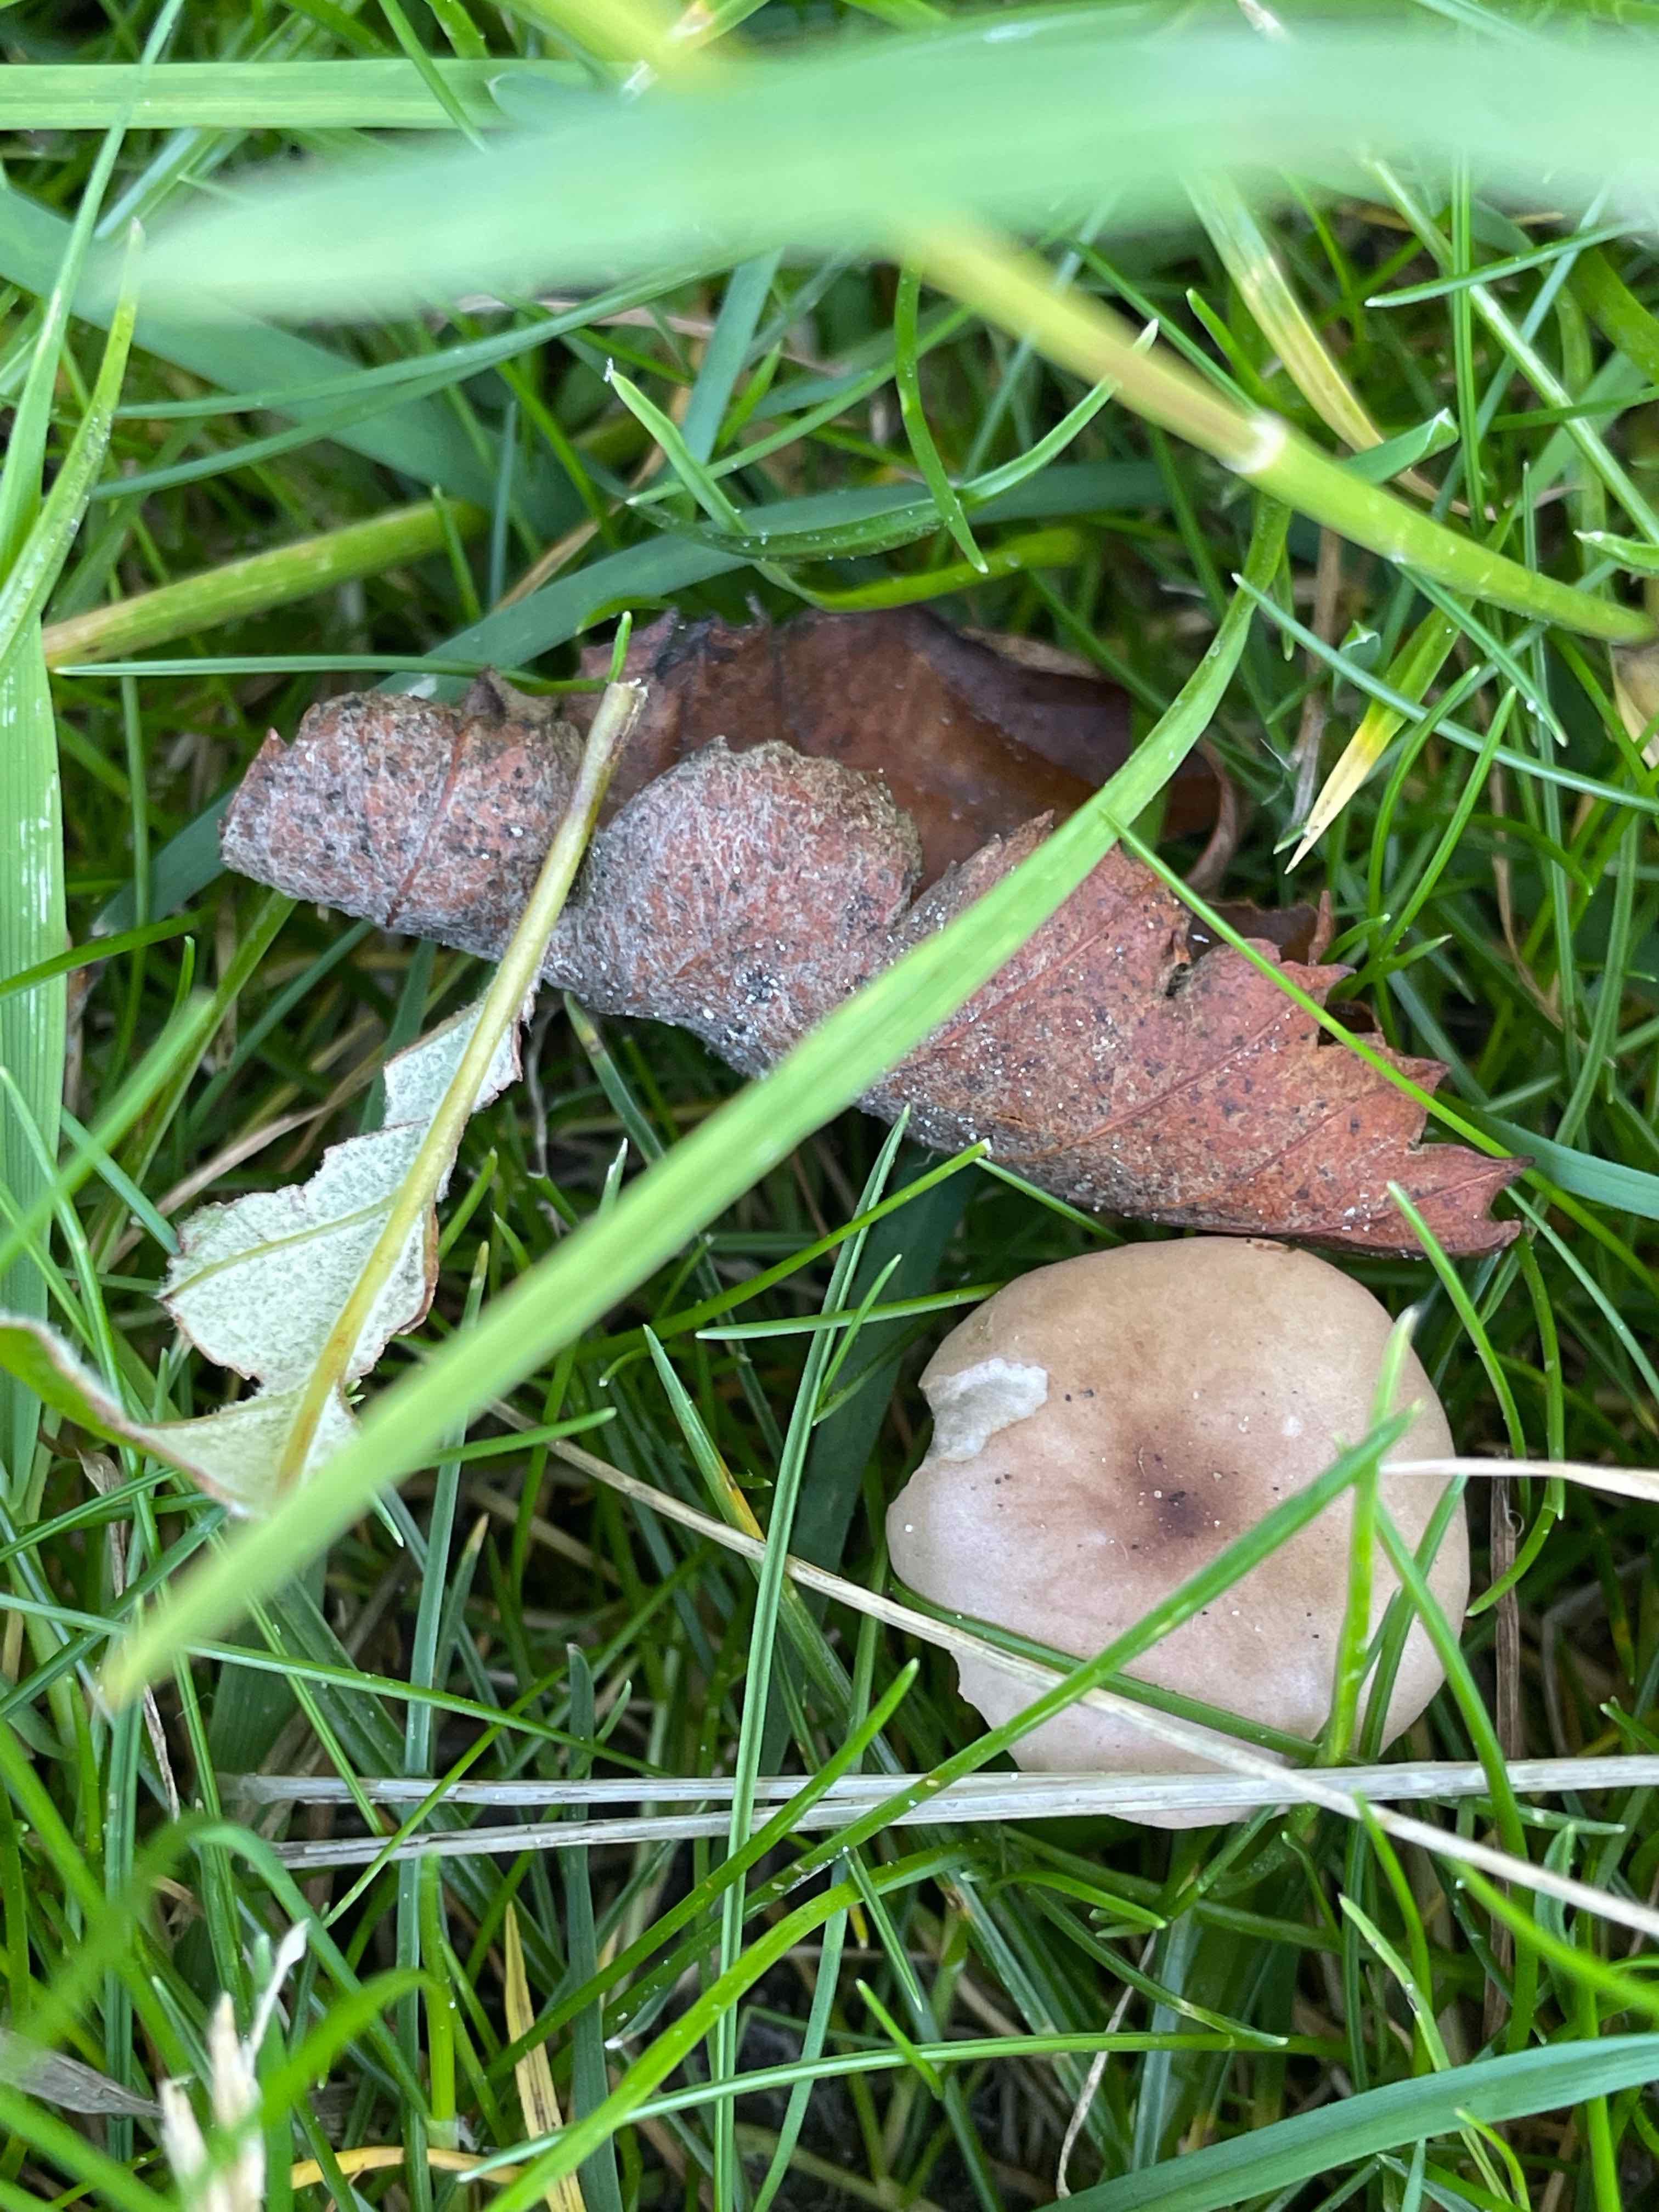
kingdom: Fungi
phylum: Basidiomycota
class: Agaricomycetes
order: Agaricales
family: Bolbitiaceae
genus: Panaeolina
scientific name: Panaeolina foenisecii
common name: høslætsvamp
